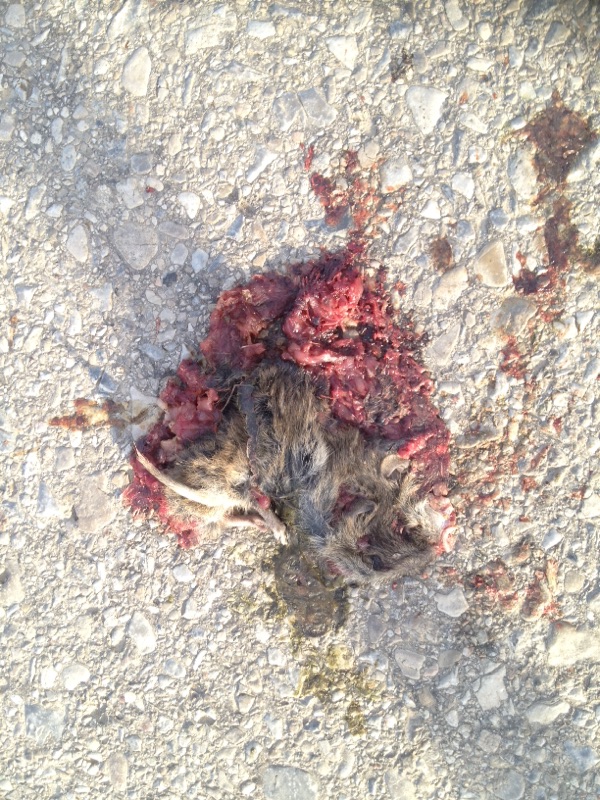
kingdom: Animalia
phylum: Chordata
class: Mammalia
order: Rodentia
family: Cricetidae
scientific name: Cricetidae
